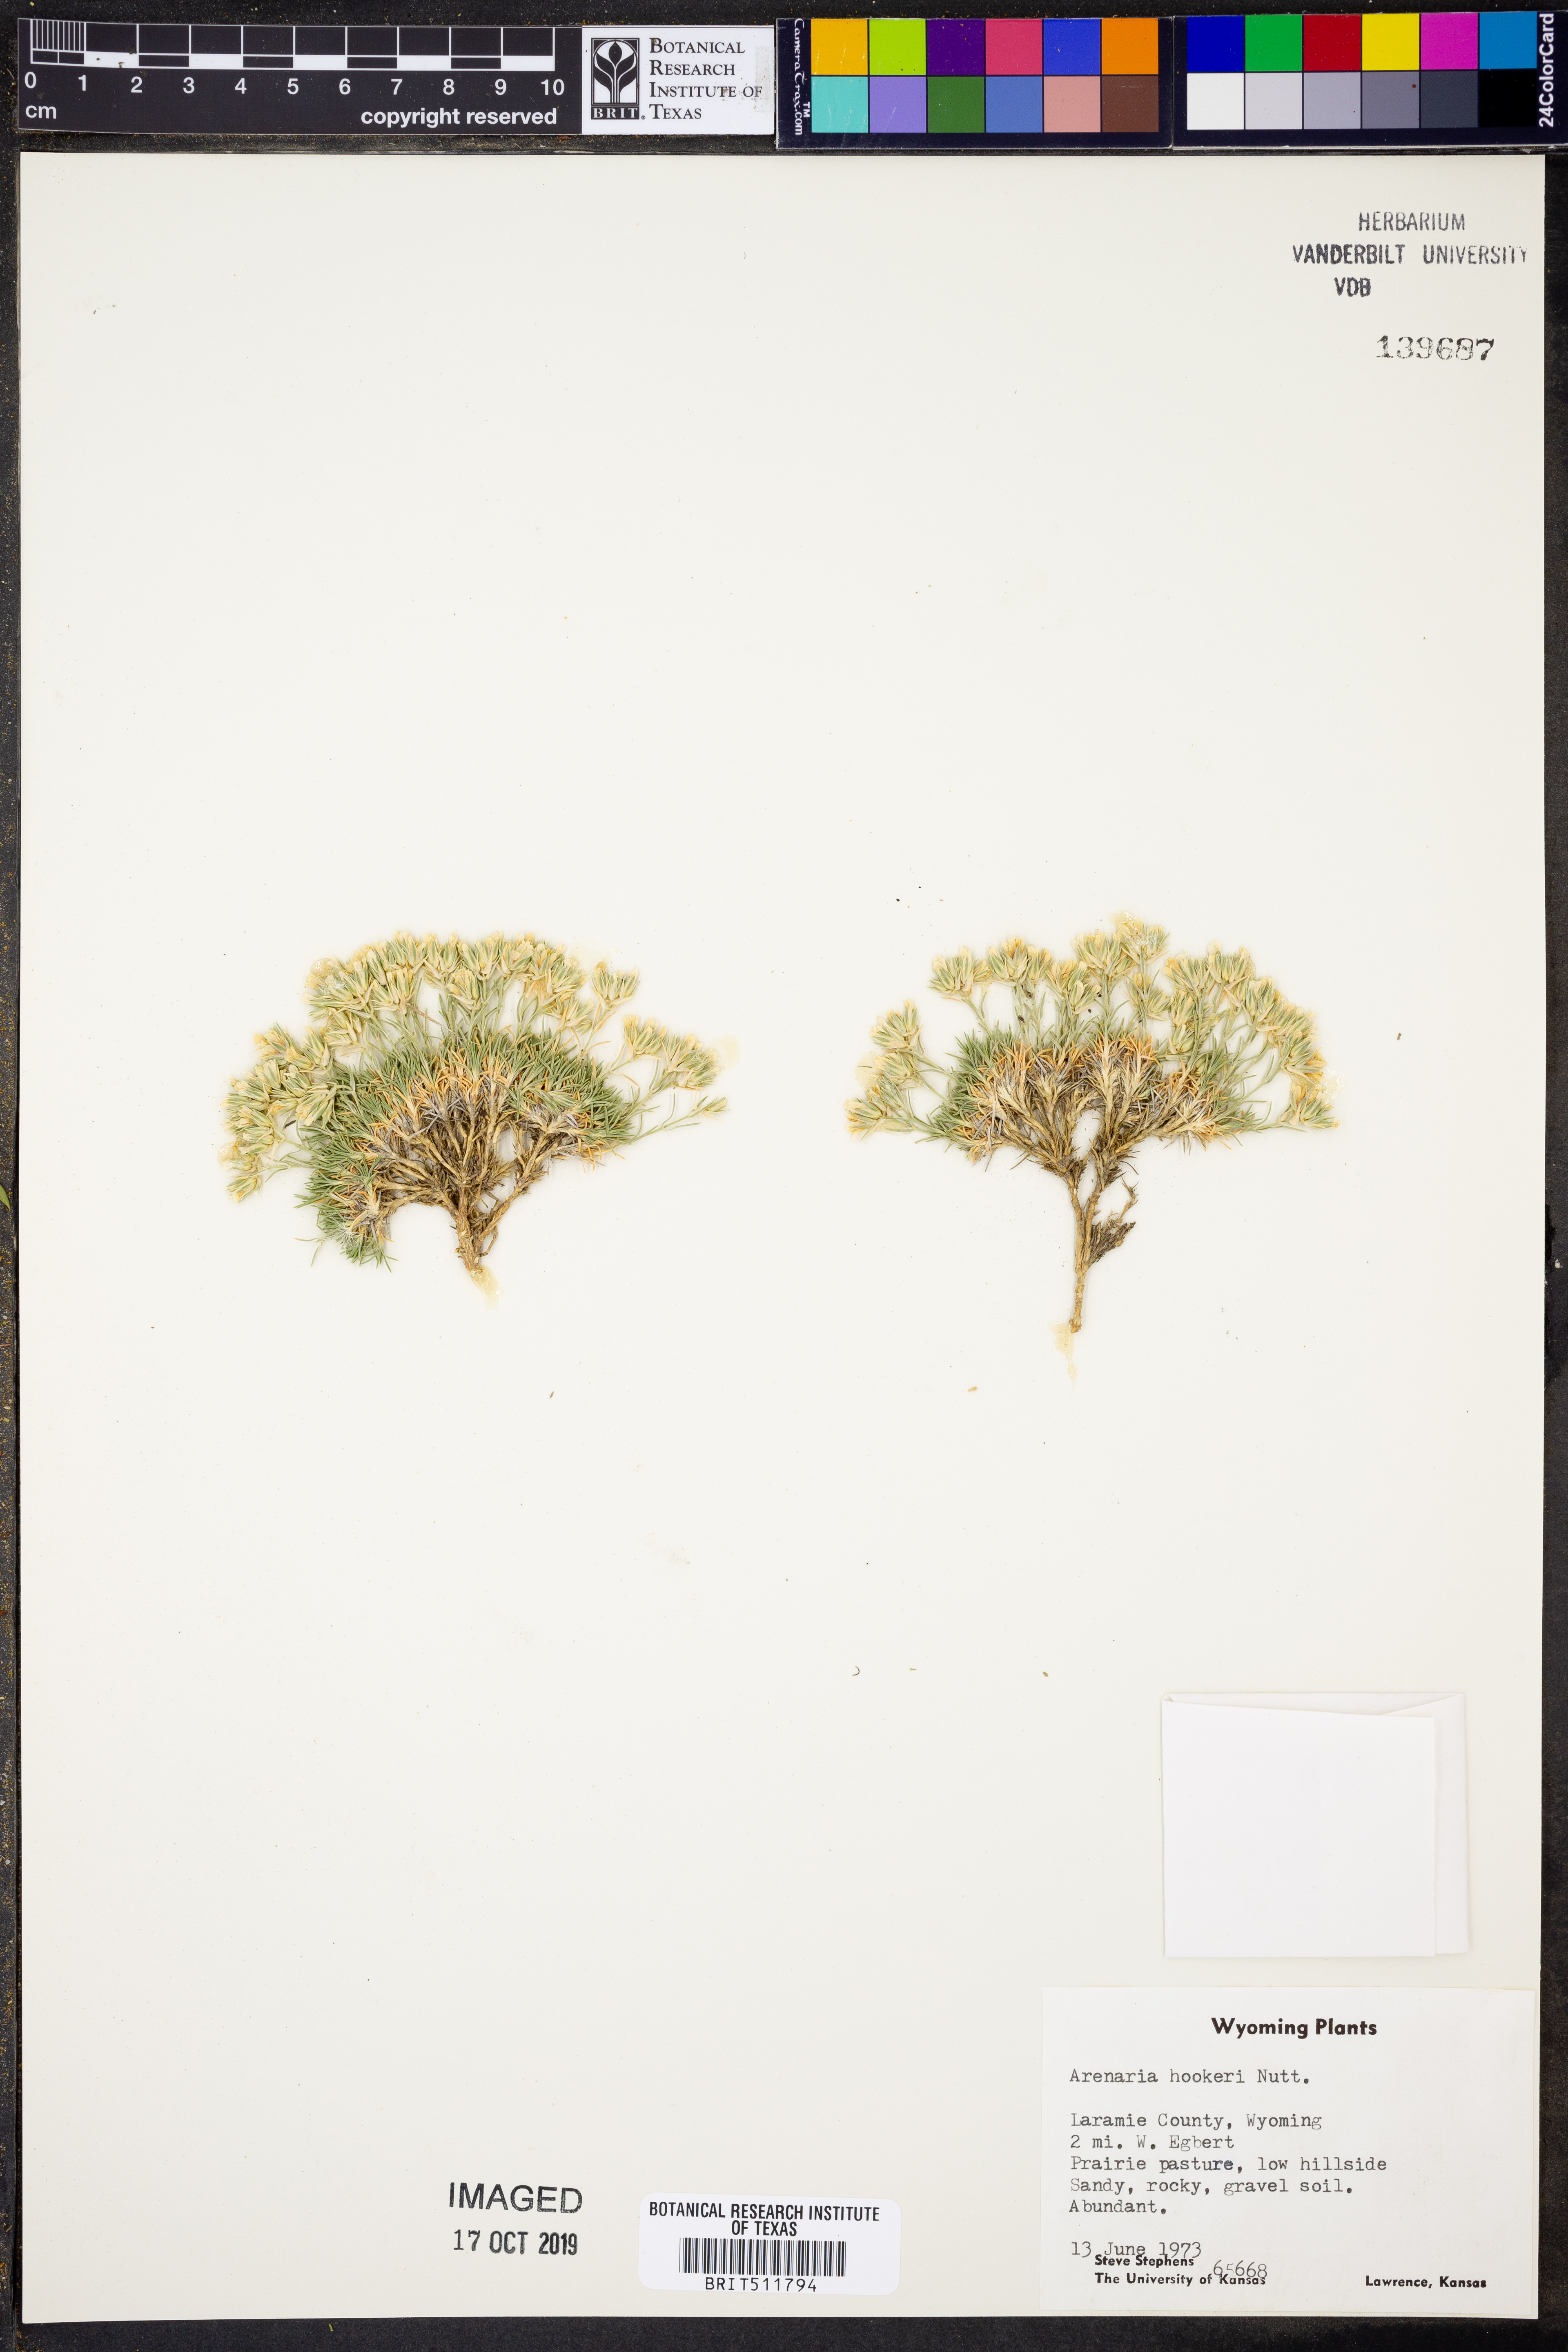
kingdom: Plantae
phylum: Tracheophyta
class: Magnoliopsida
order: Caryophyllales
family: Caryophyllaceae
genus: Eremogone
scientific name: Eremogone hookeri
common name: Hooker's sandwort
